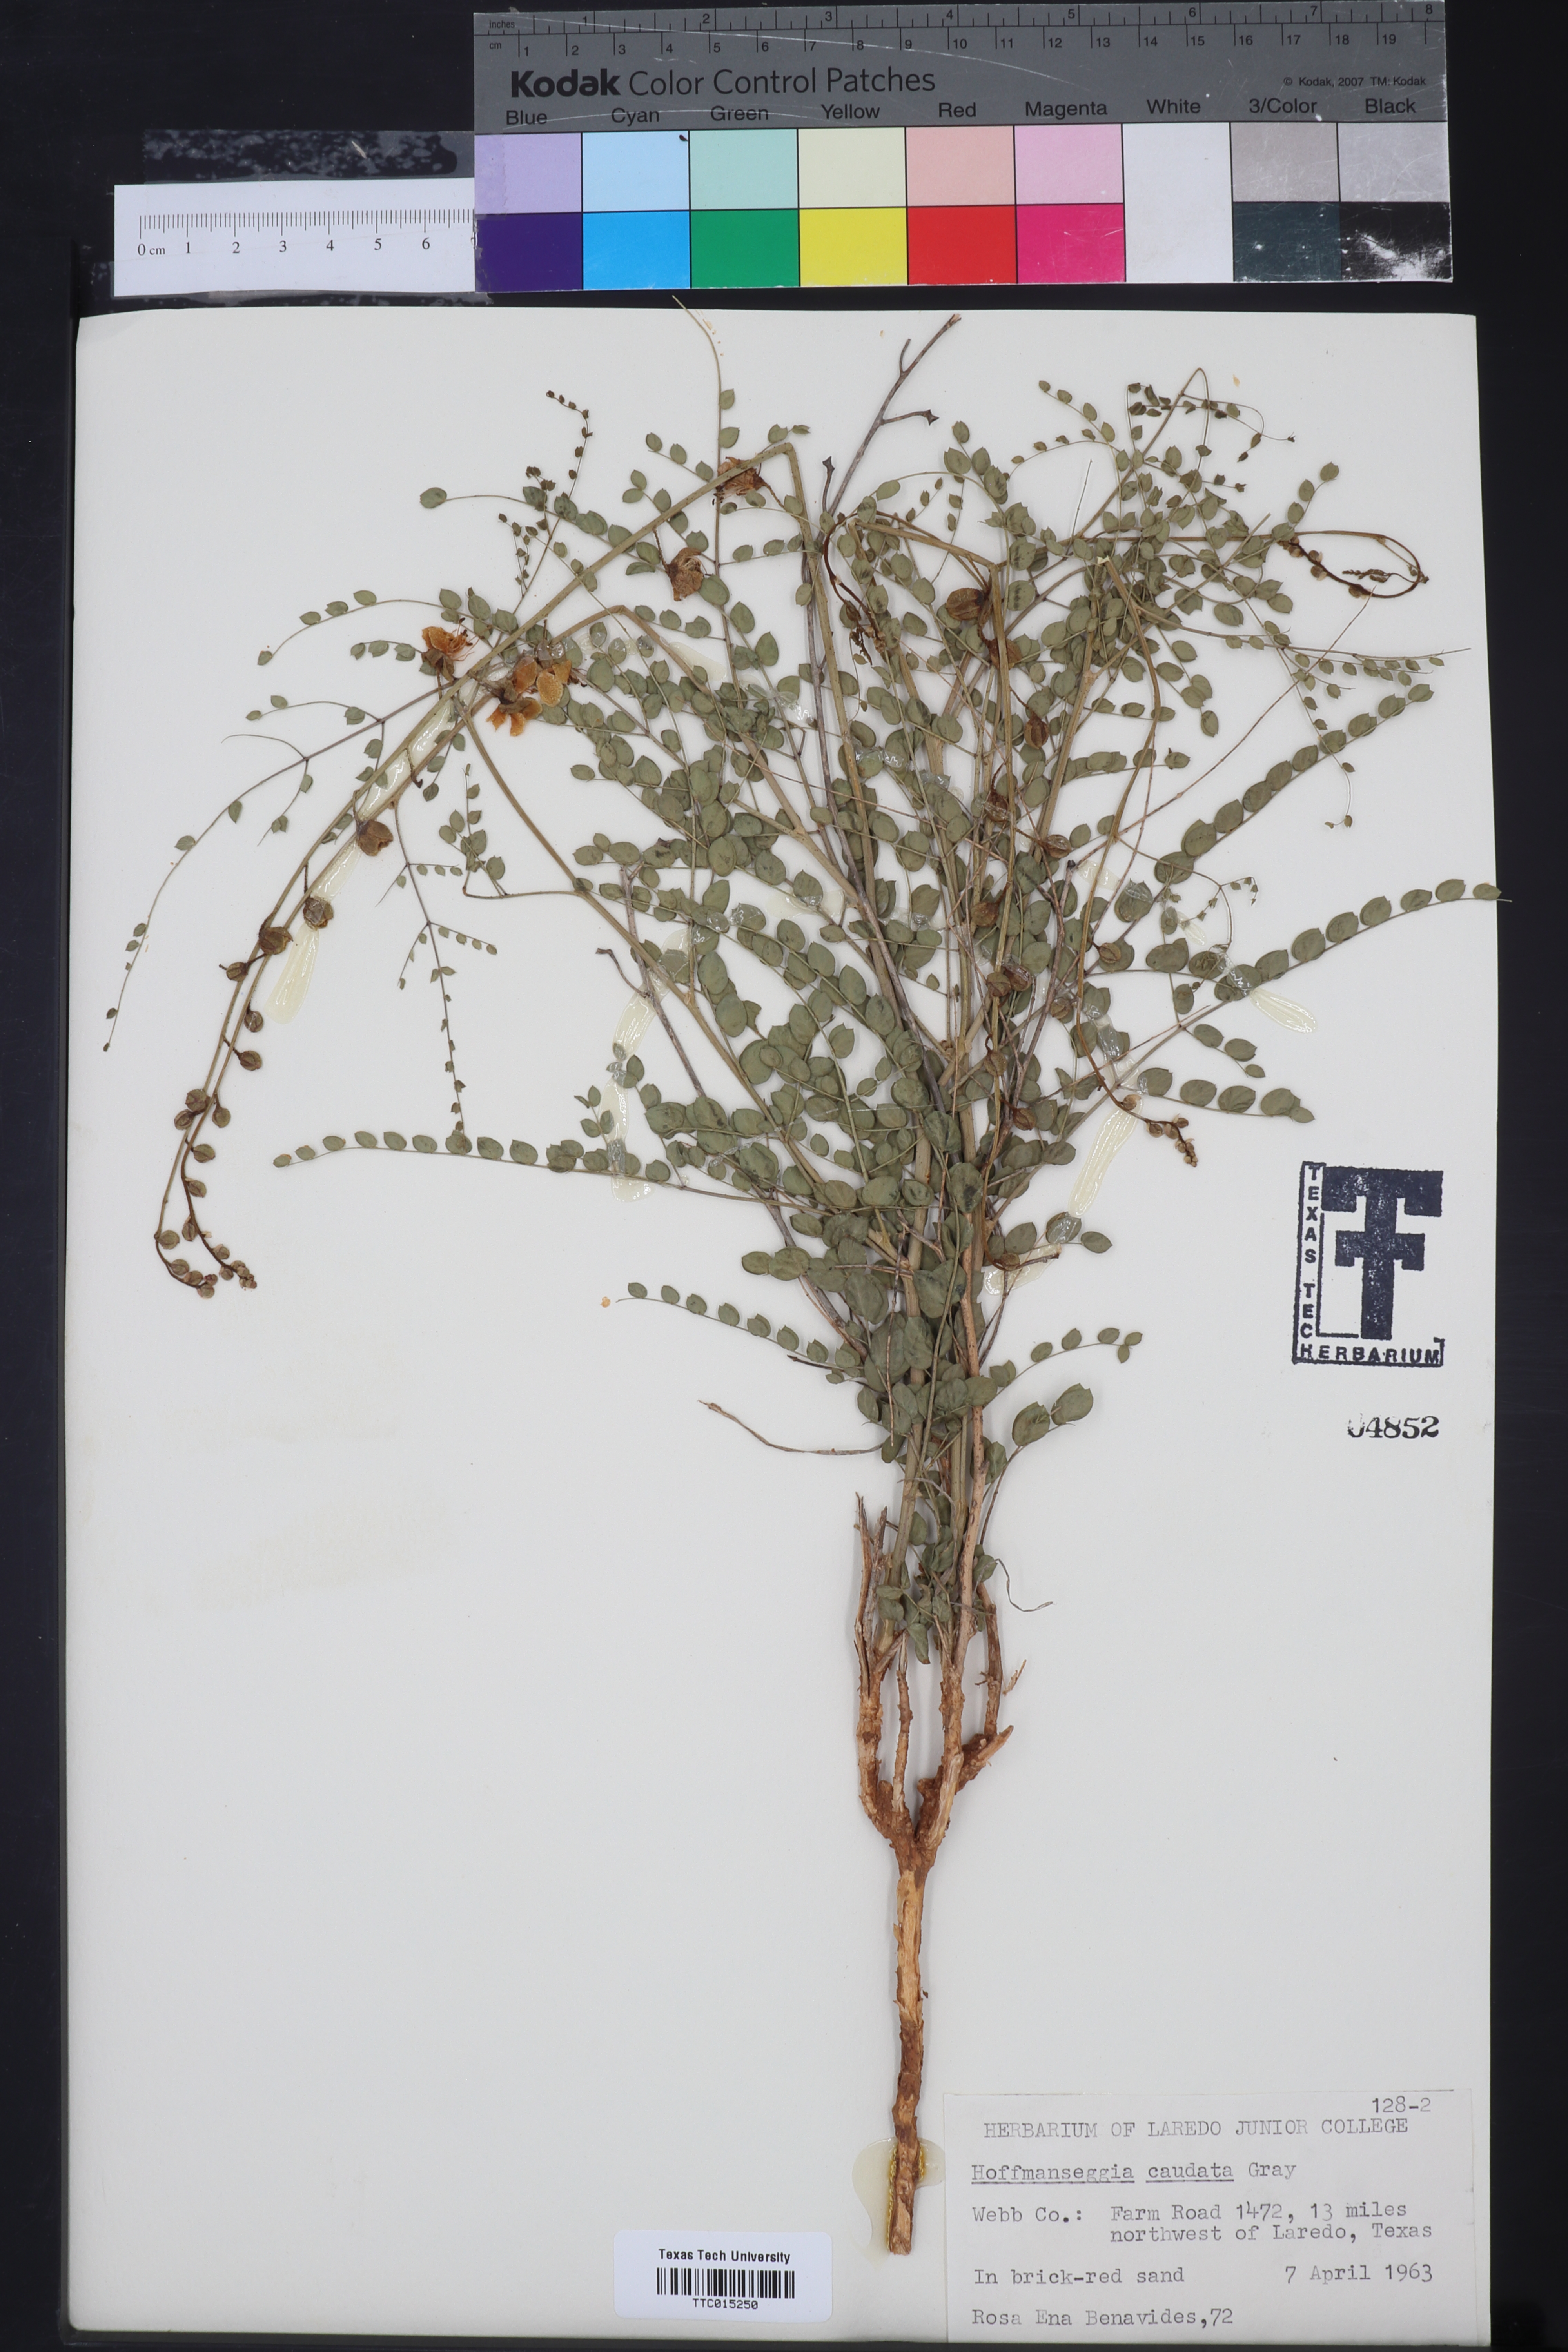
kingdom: Plantae
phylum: Tracheophyta
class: Magnoliopsida
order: Fabales
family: Fabaceae
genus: Erythrostemon
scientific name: Erythrostemon caudatus
